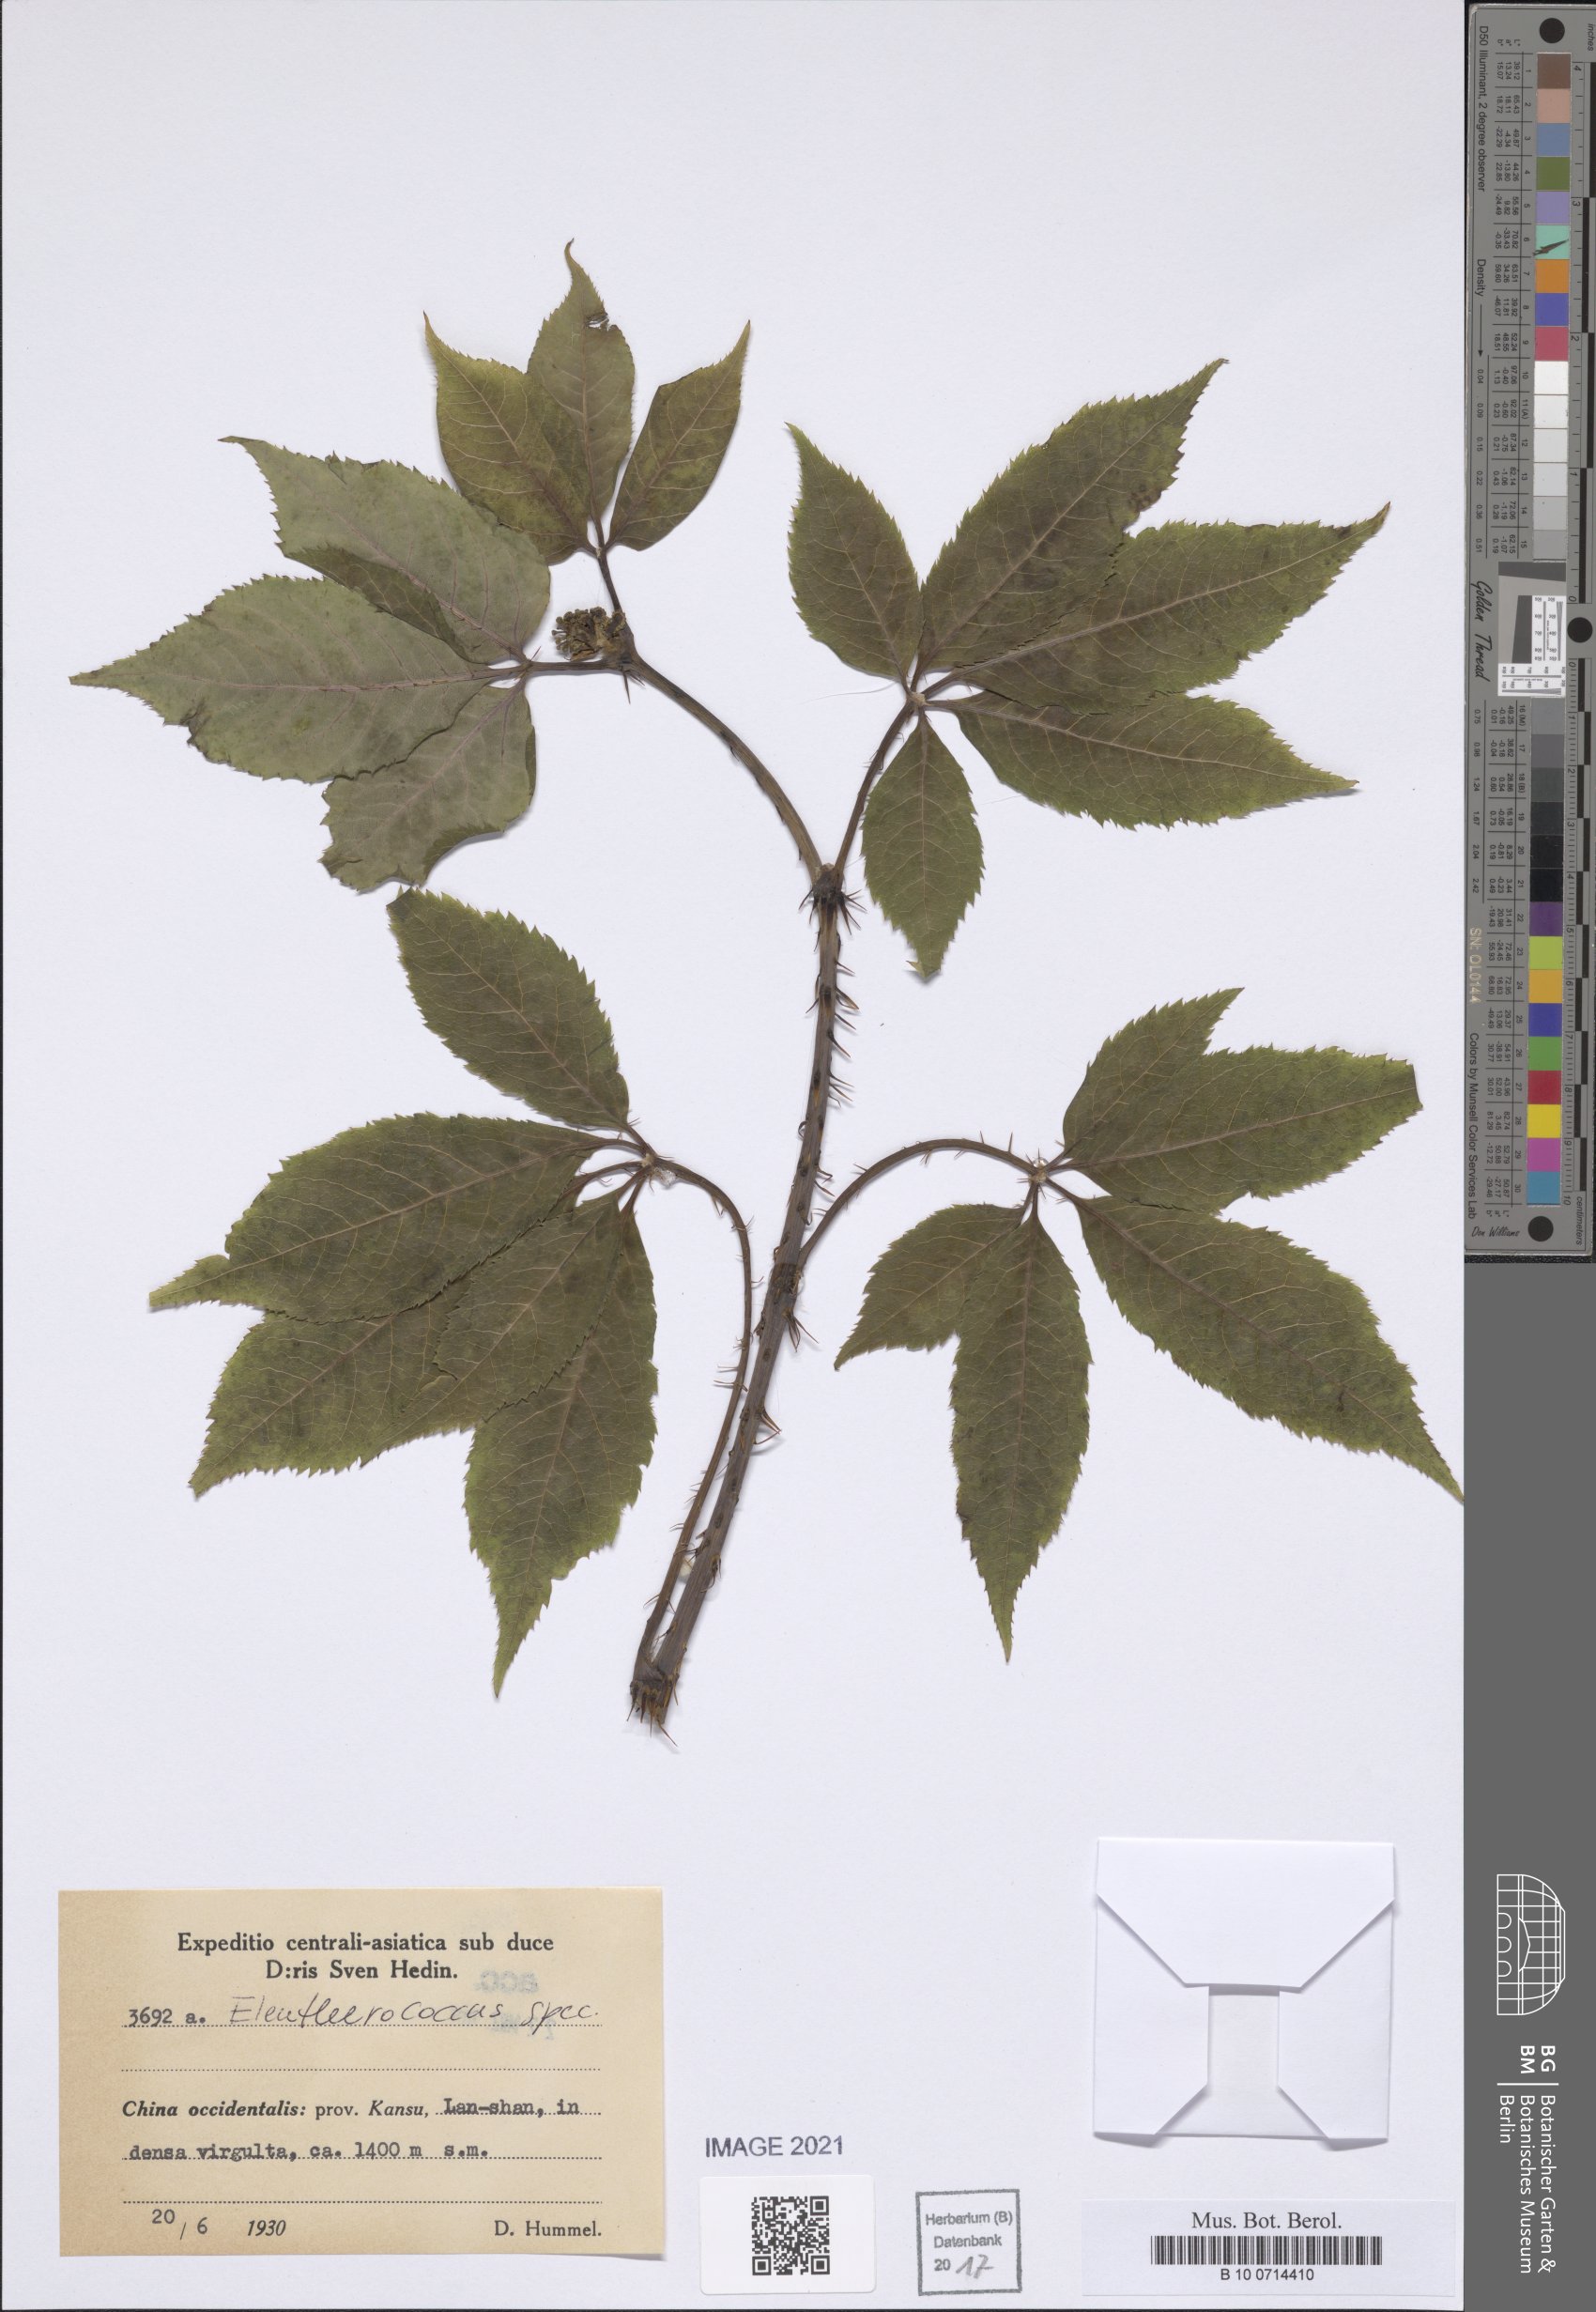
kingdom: Plantae
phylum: Tracheophyta
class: Magnoliopsida
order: Apiales
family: Araliaceae
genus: Eleutherococcus
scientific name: Eleutherococcus
